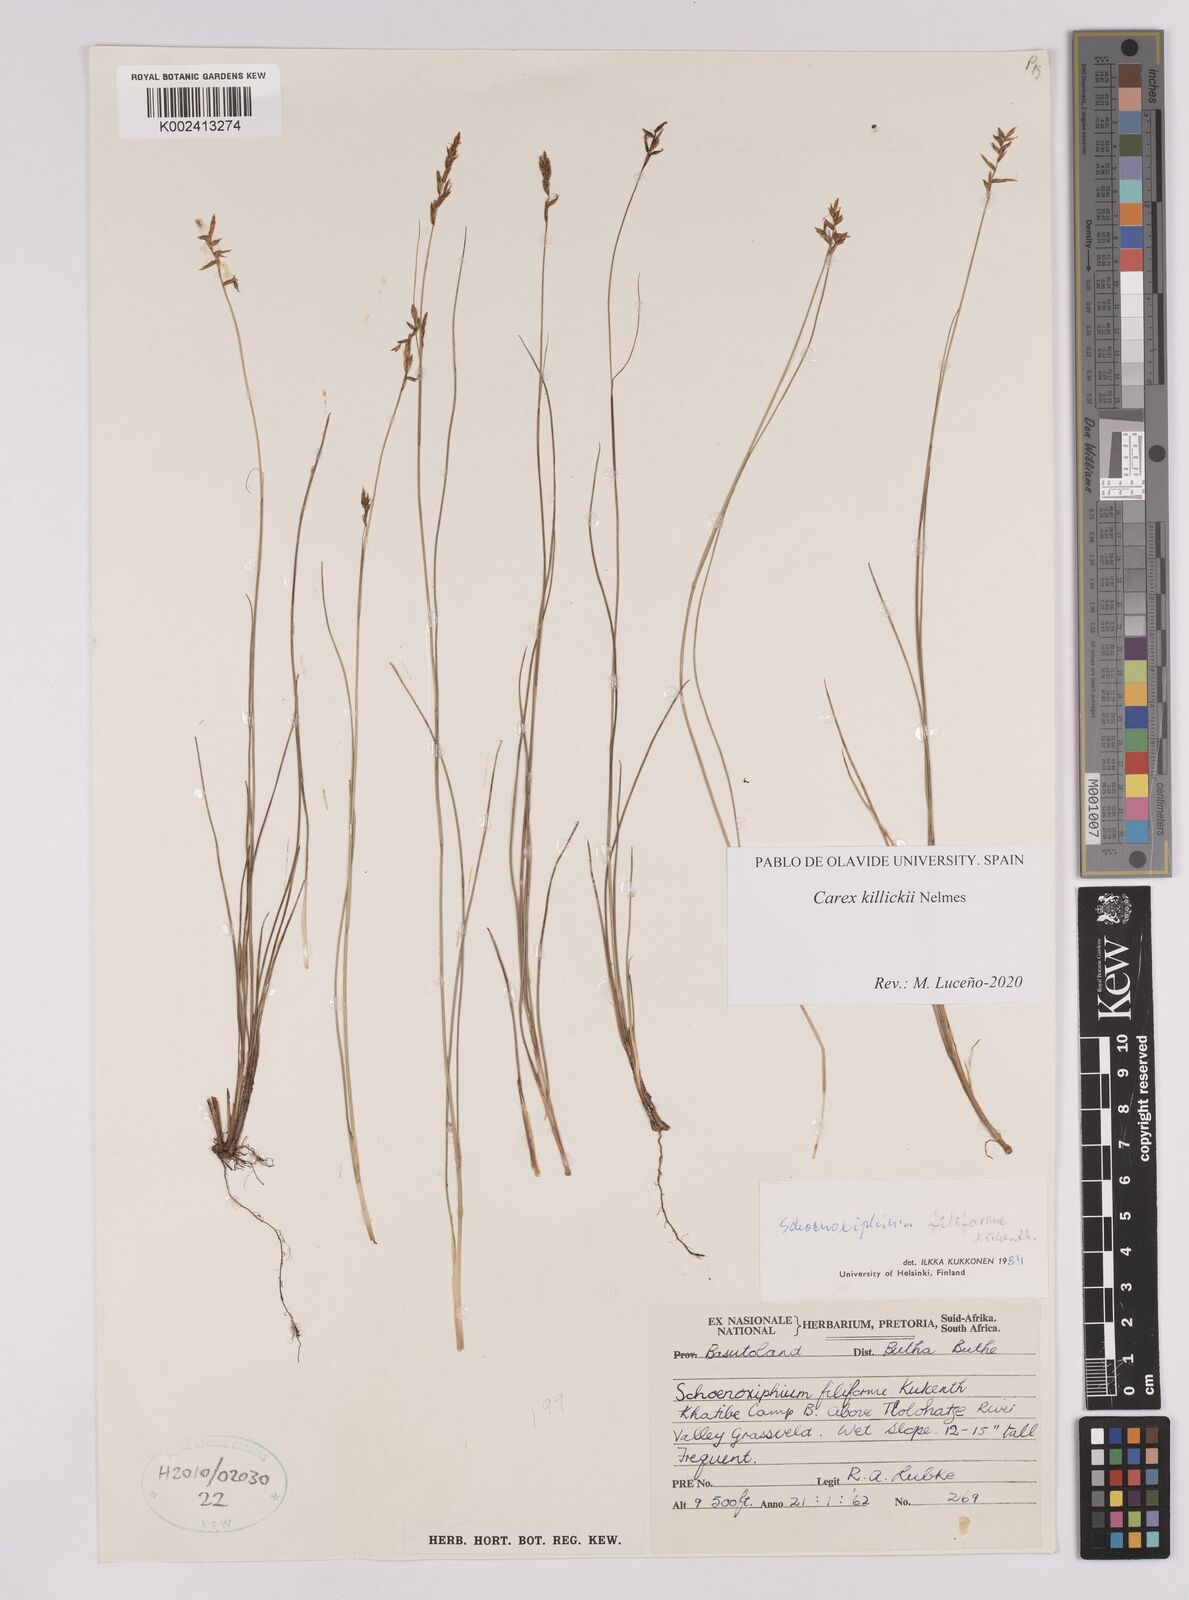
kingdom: Plantae
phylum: Tracheophyta
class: Liliopsida
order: Poales
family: Cyperaceae
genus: Carex
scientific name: Carex
